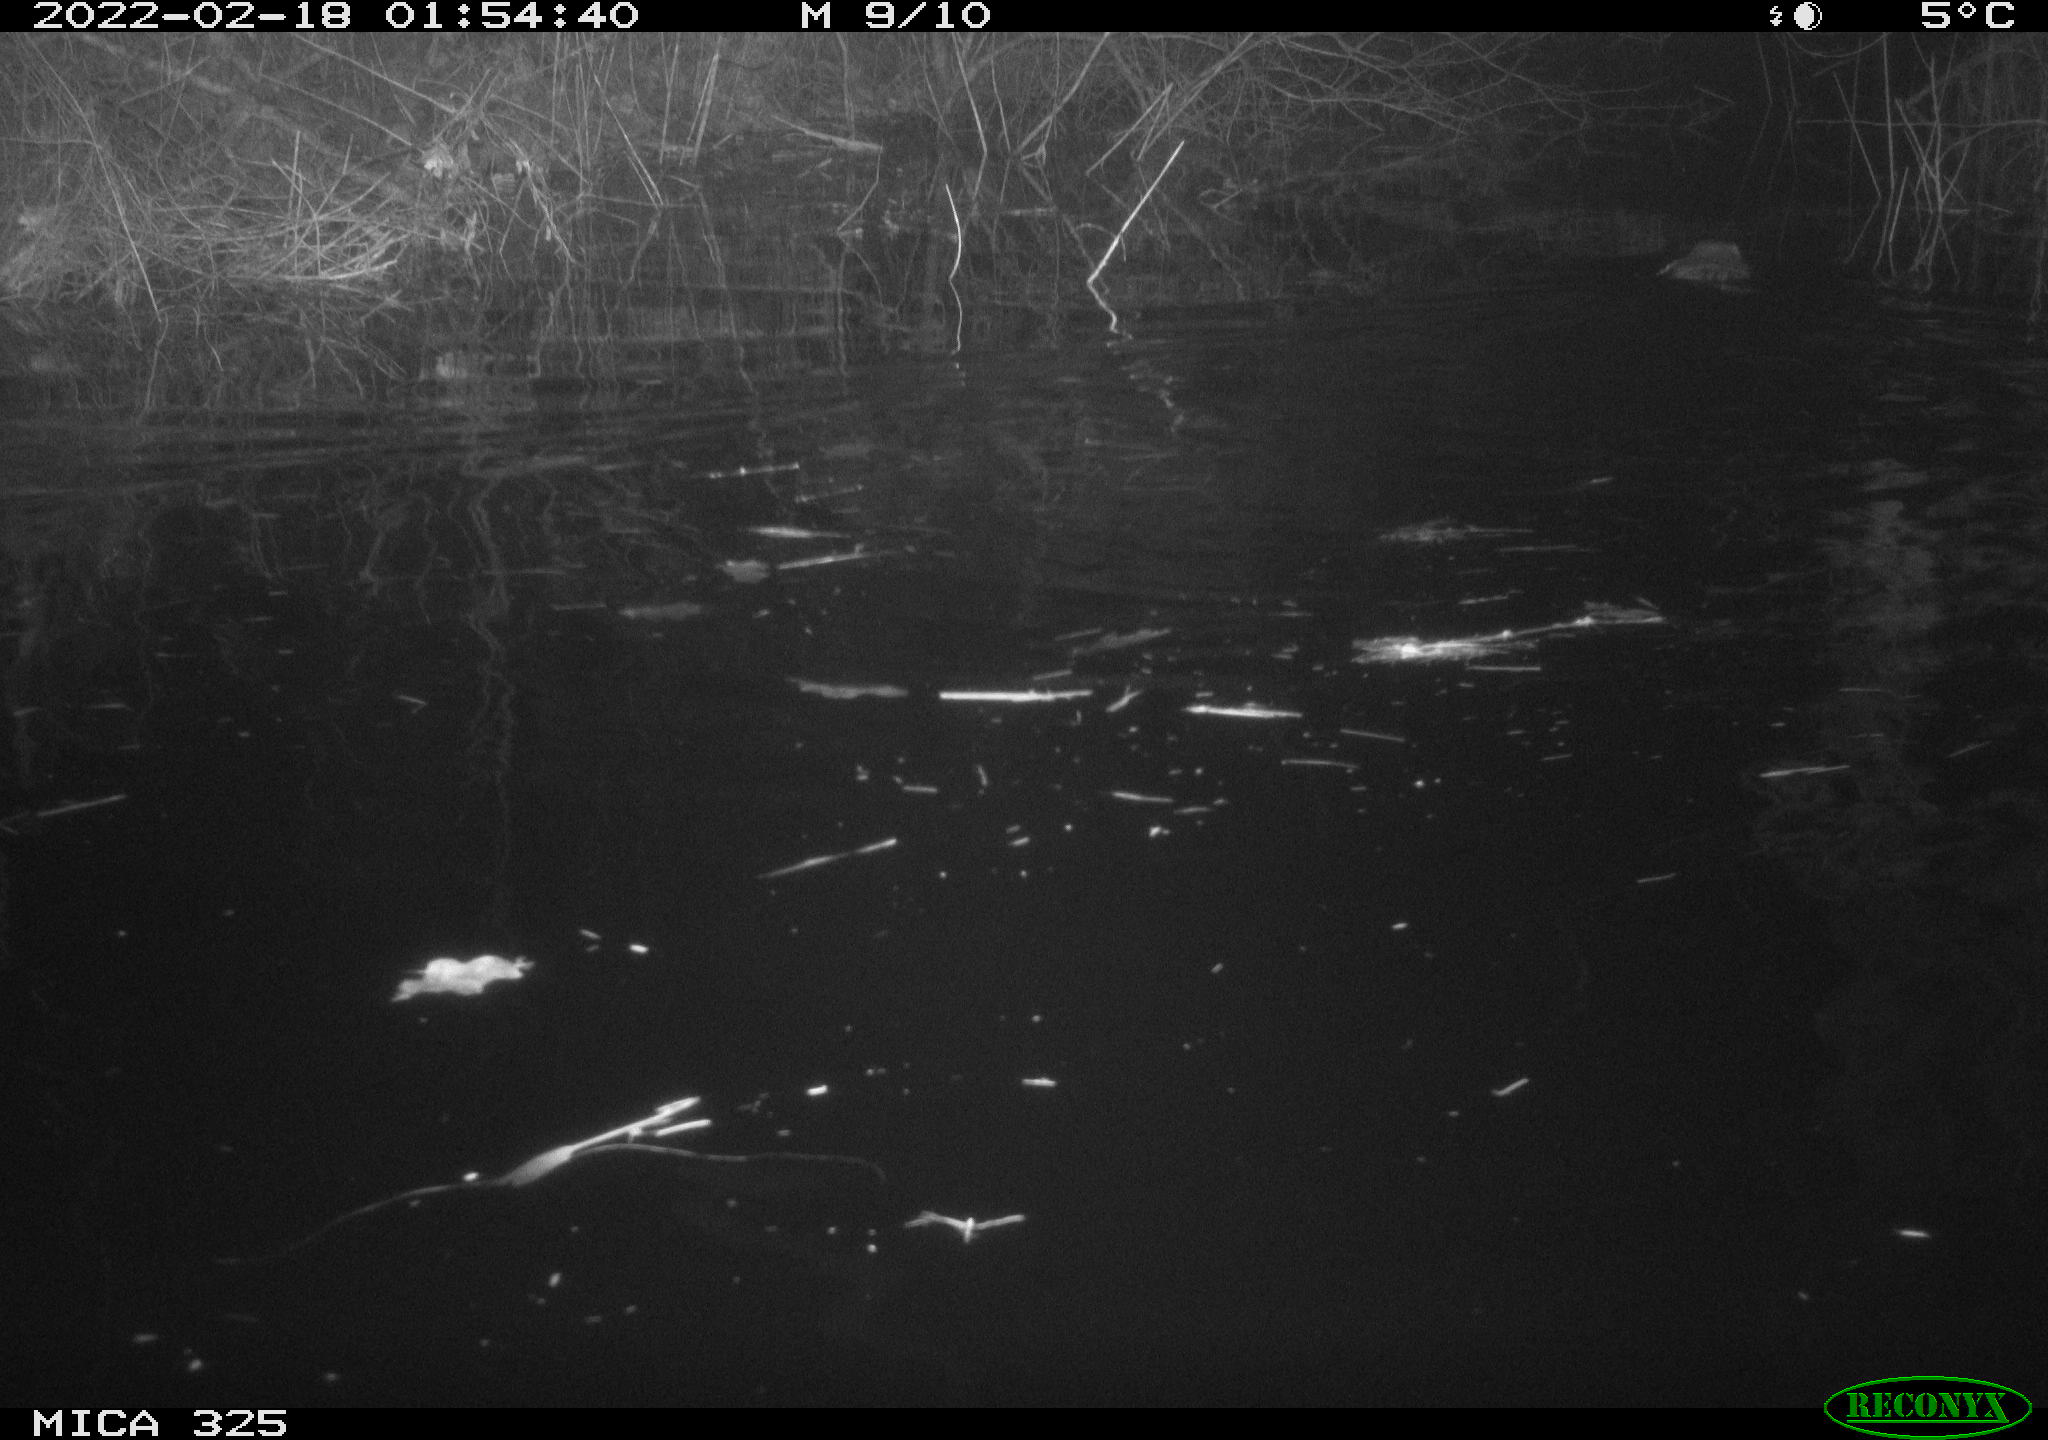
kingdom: Animalia
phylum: Chordata
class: Mammalia
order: Rodentia
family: Cricetidae
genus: Ondatra
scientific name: Ondatra zibethicus
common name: Muskrat
